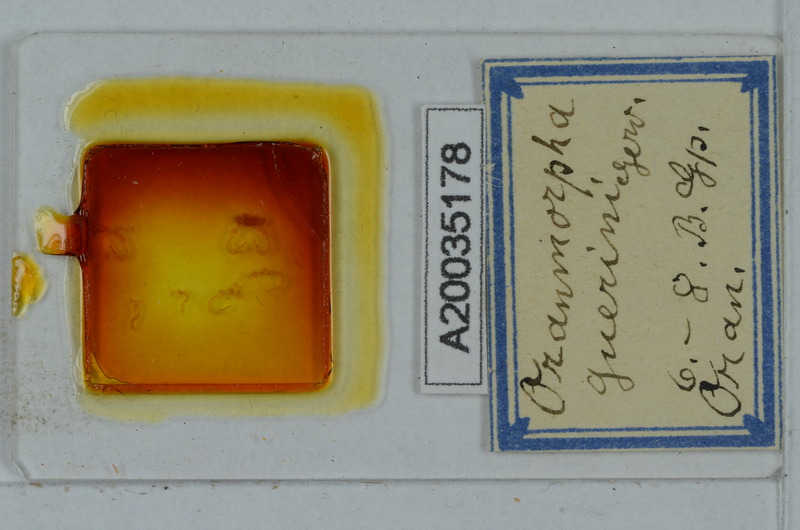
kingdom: Animalia
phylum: Arthropoda
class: Diplopoda
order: Polydesmida
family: Paradoxosomatidae
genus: Oranmorpha
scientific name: Oranmorpha guerinii
